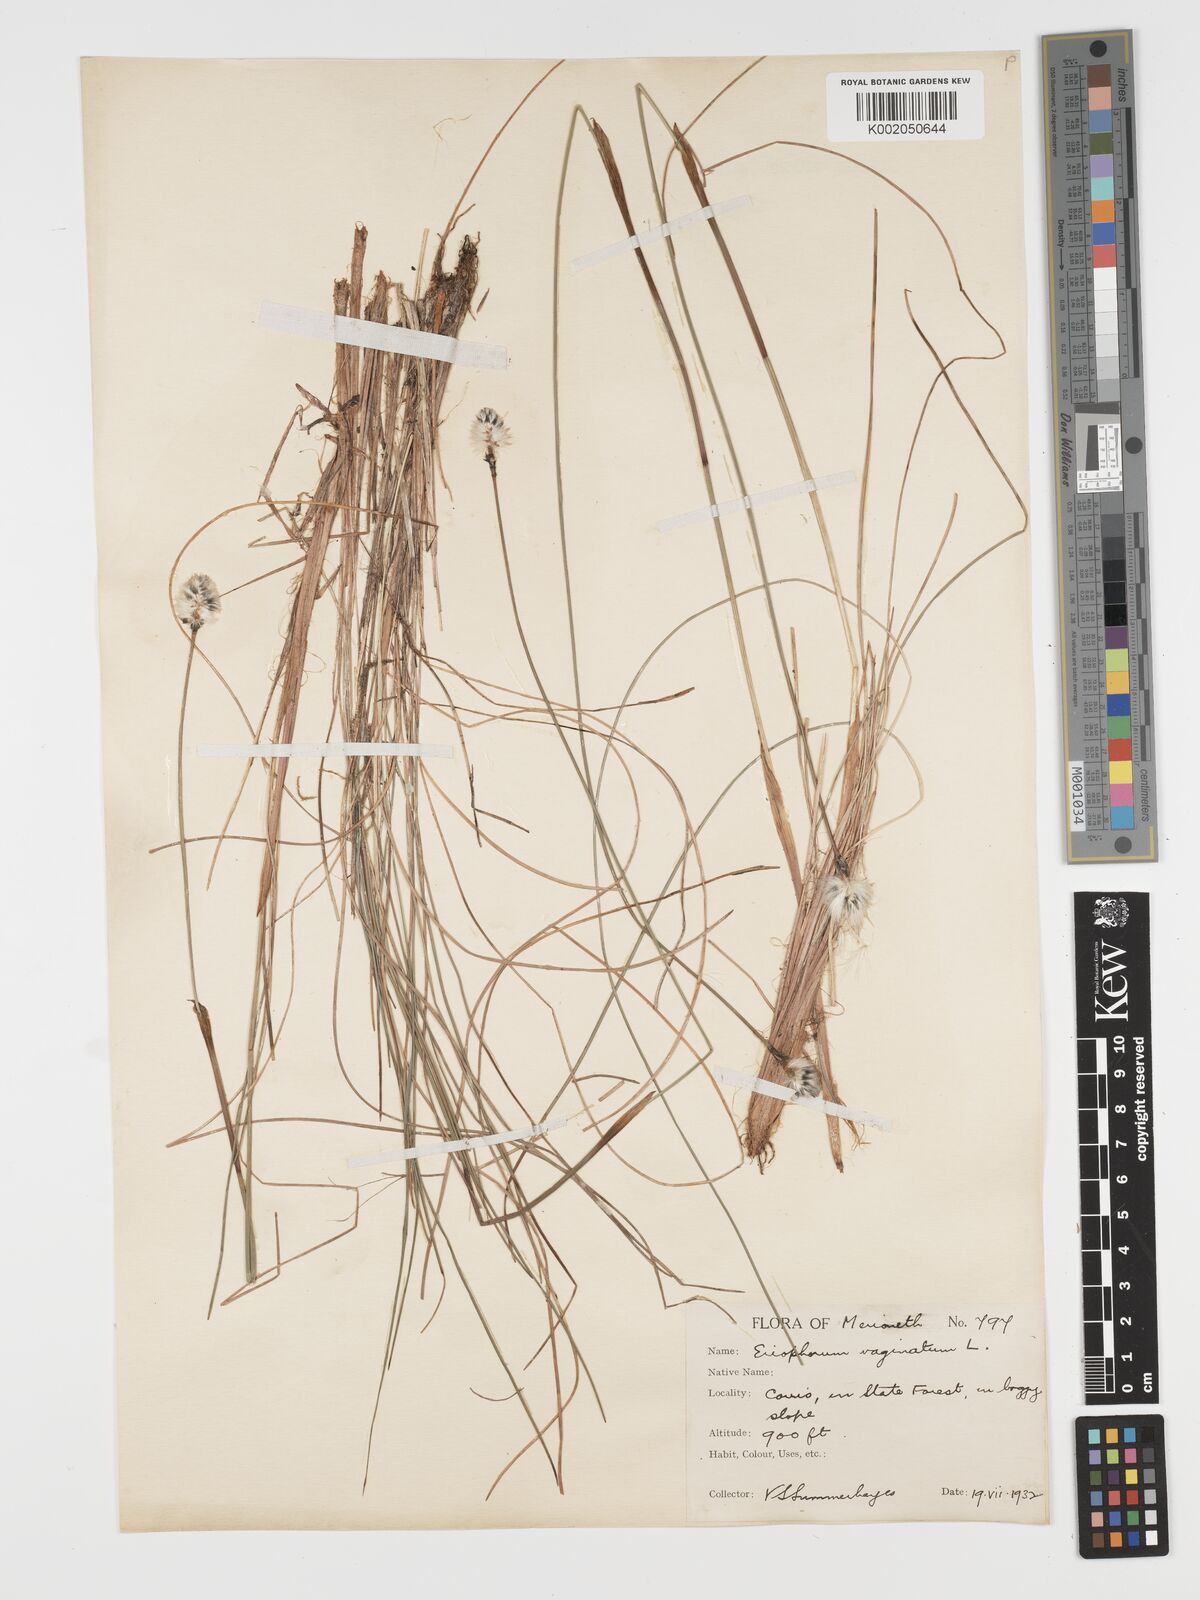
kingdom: Plantae
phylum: Tracheophyta
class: Liliopsida
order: Poales
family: Cyperaceae
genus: Eriophorum
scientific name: Eriophorum vaginatum
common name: Hare's-tail cottongrass
